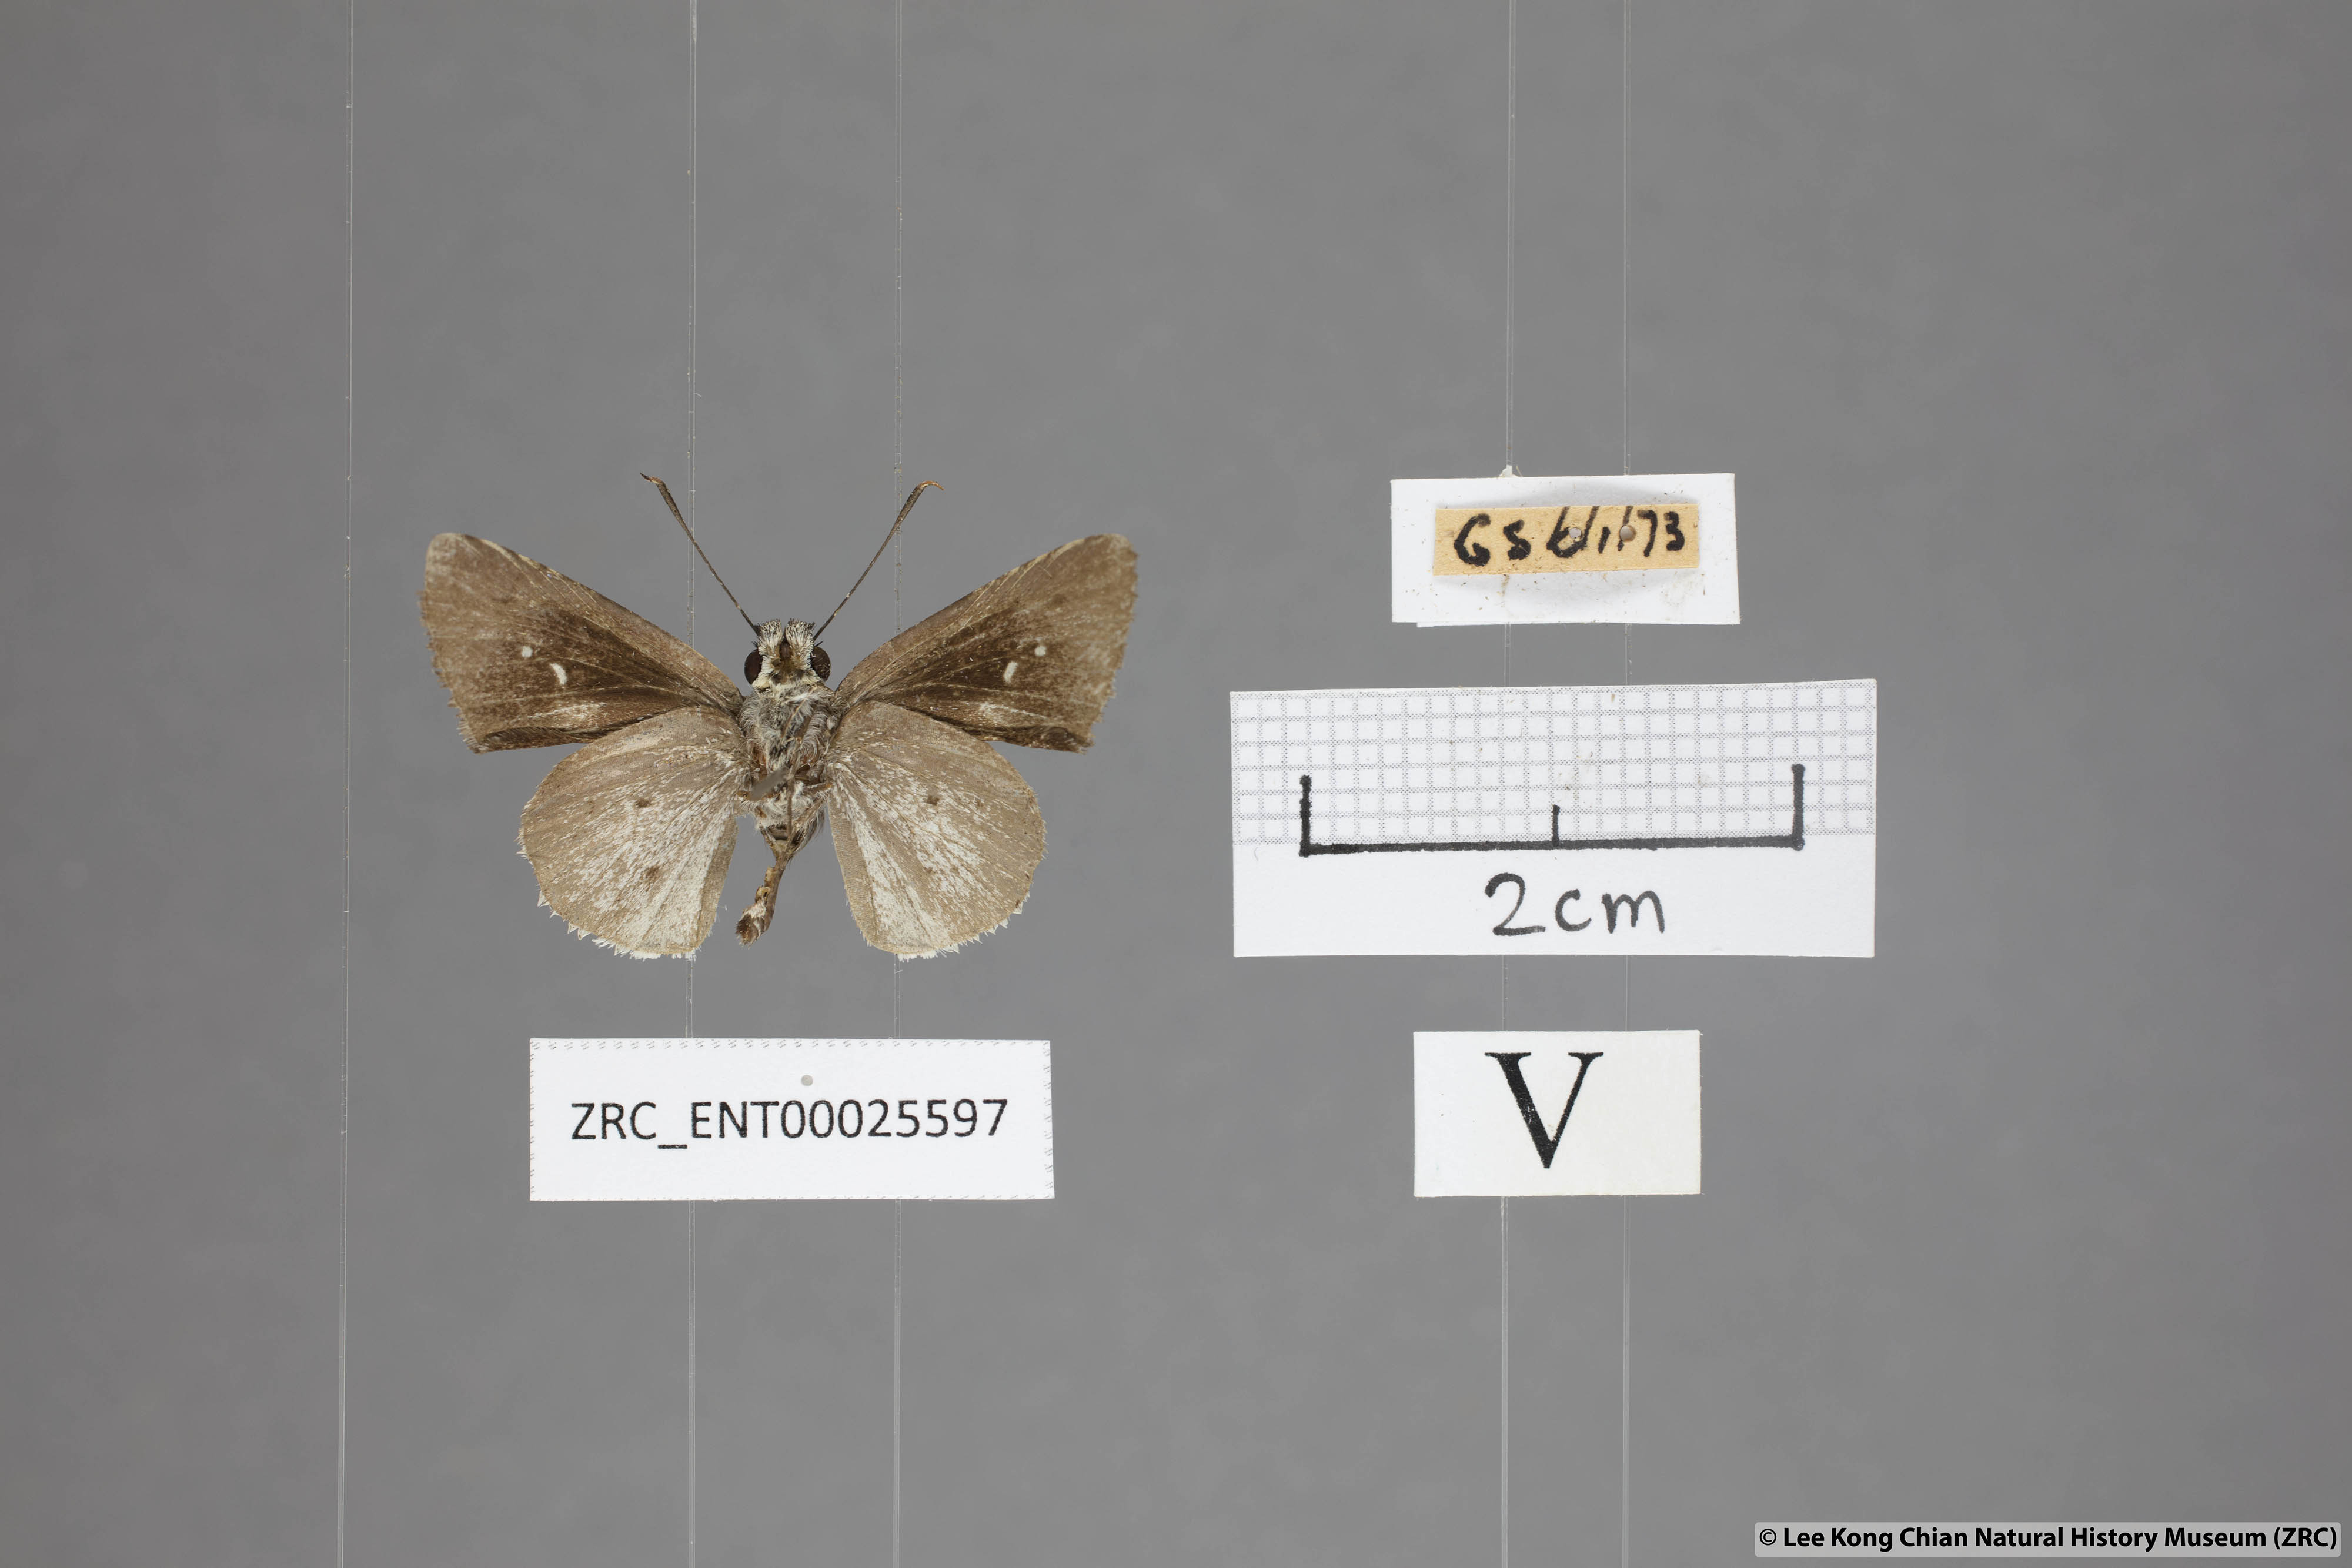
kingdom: Animalia
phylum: Arthropoda
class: Insecta
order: Lepidoptera
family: Hesperiidae
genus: Suastus
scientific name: Suastus minuta
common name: Small palm bob
